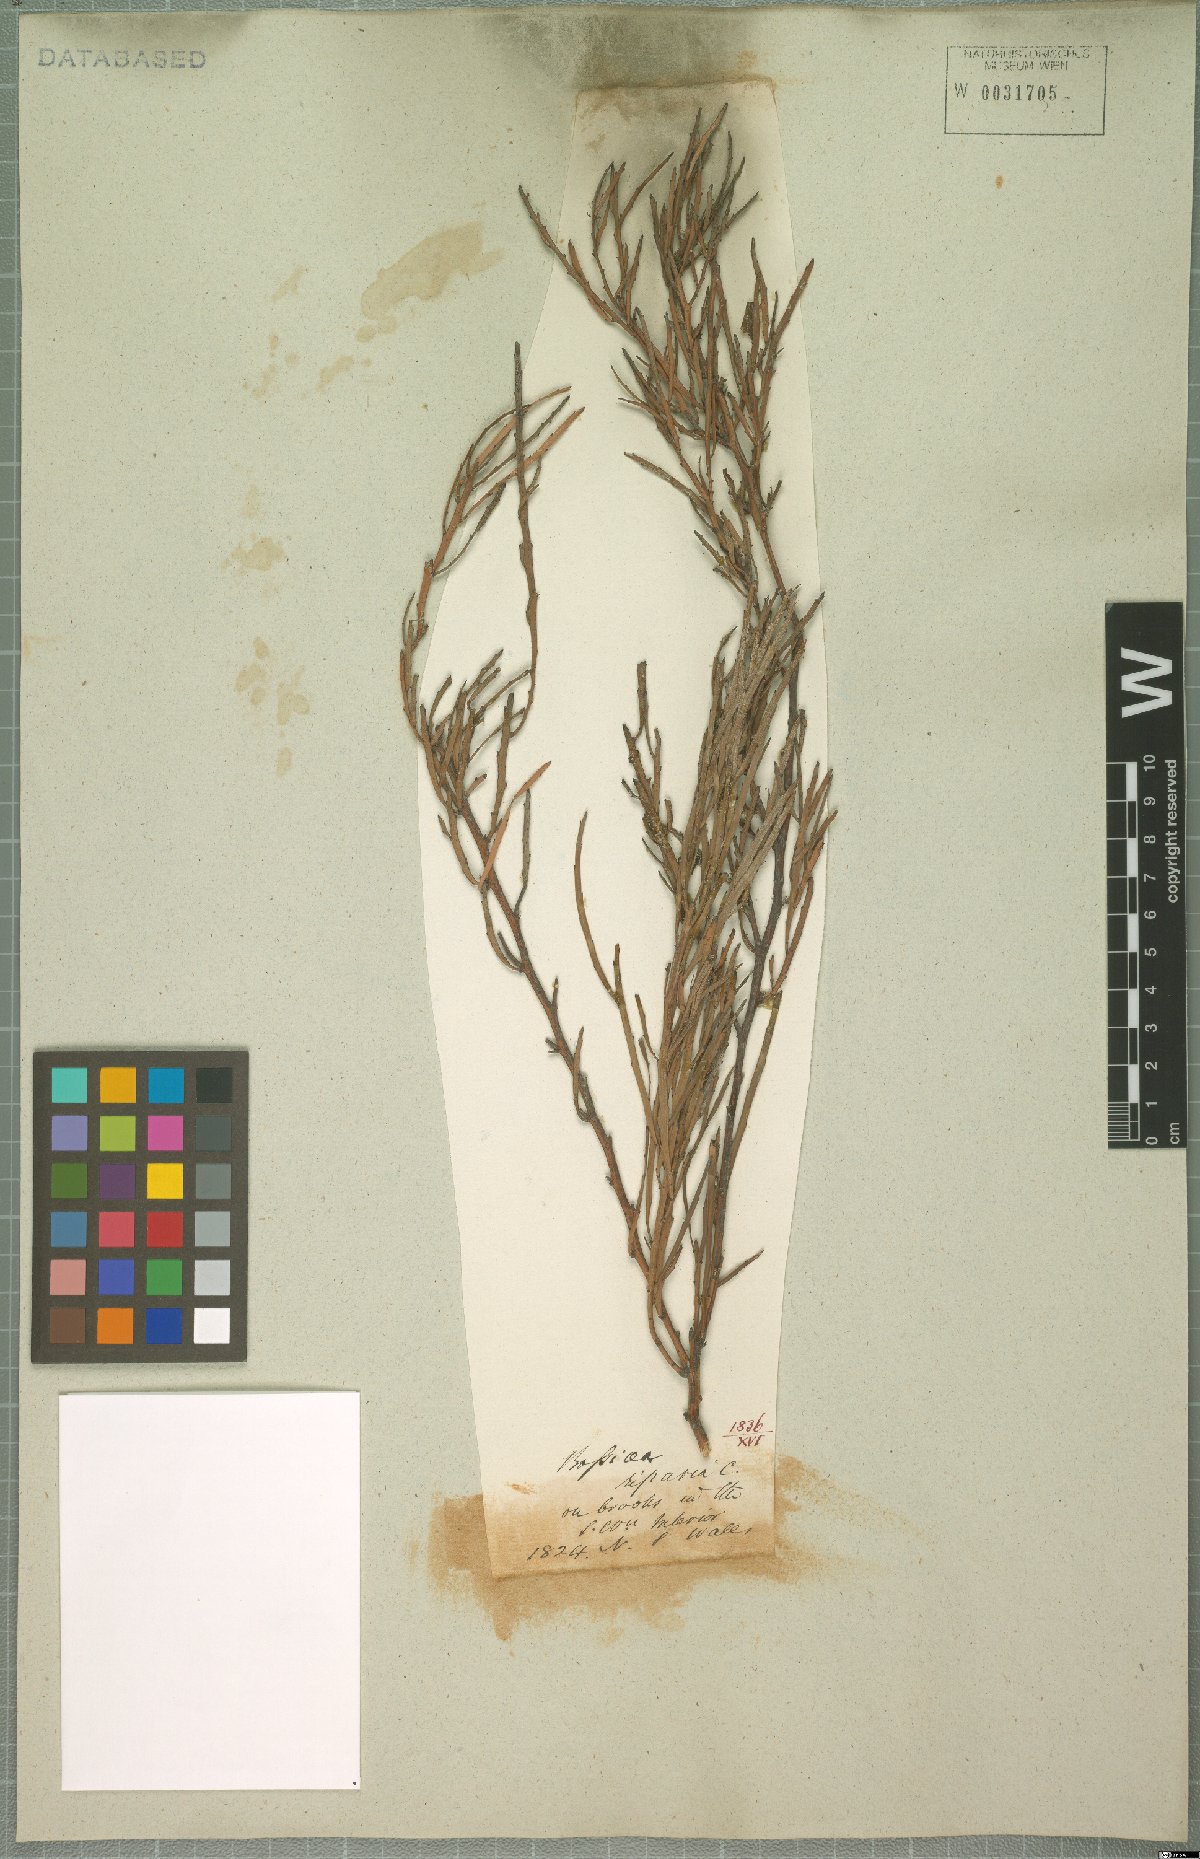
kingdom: Plantae
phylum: Tracheophyta
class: Magnoliopsida
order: Fabales
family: Fabaceae
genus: Bossiaea
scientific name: Bossiaea riparia
